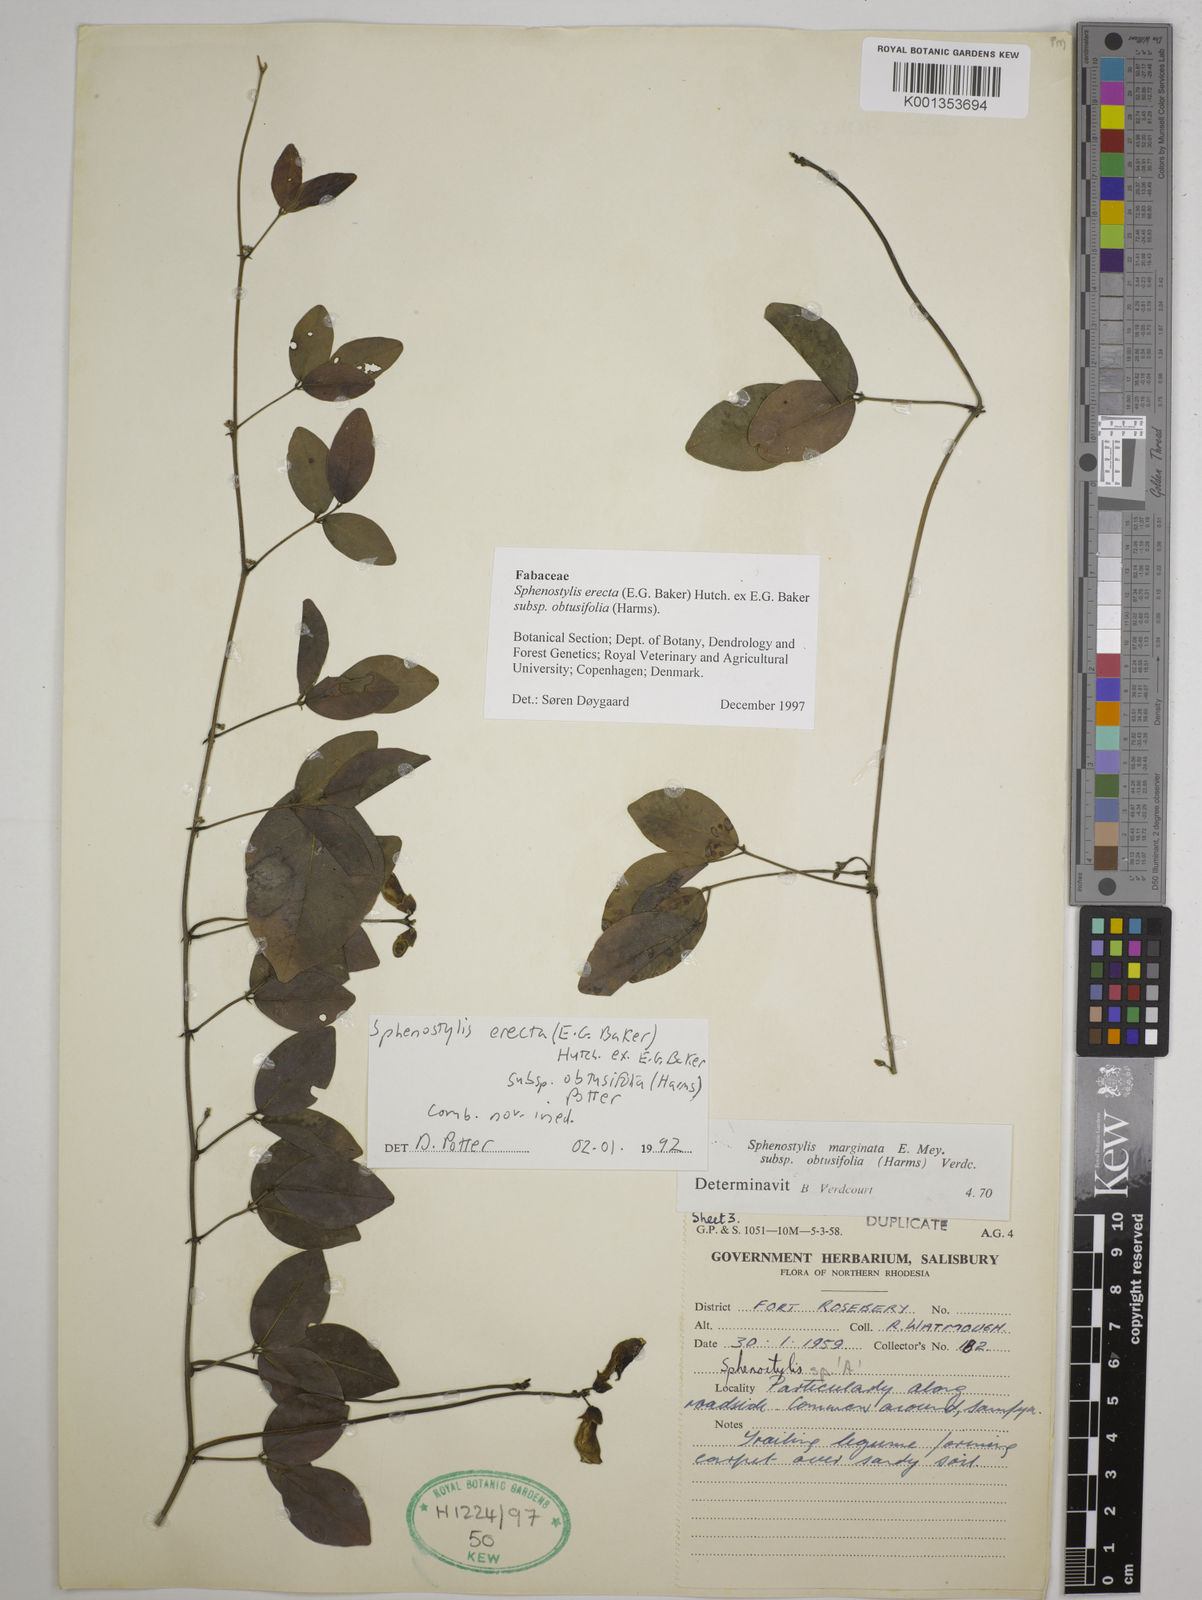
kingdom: Plantae
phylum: Tracheophyta
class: Magnoliopsida
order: Fabales
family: Fabaceae
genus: Sphenostylis
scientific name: Sphenostylis erecta
